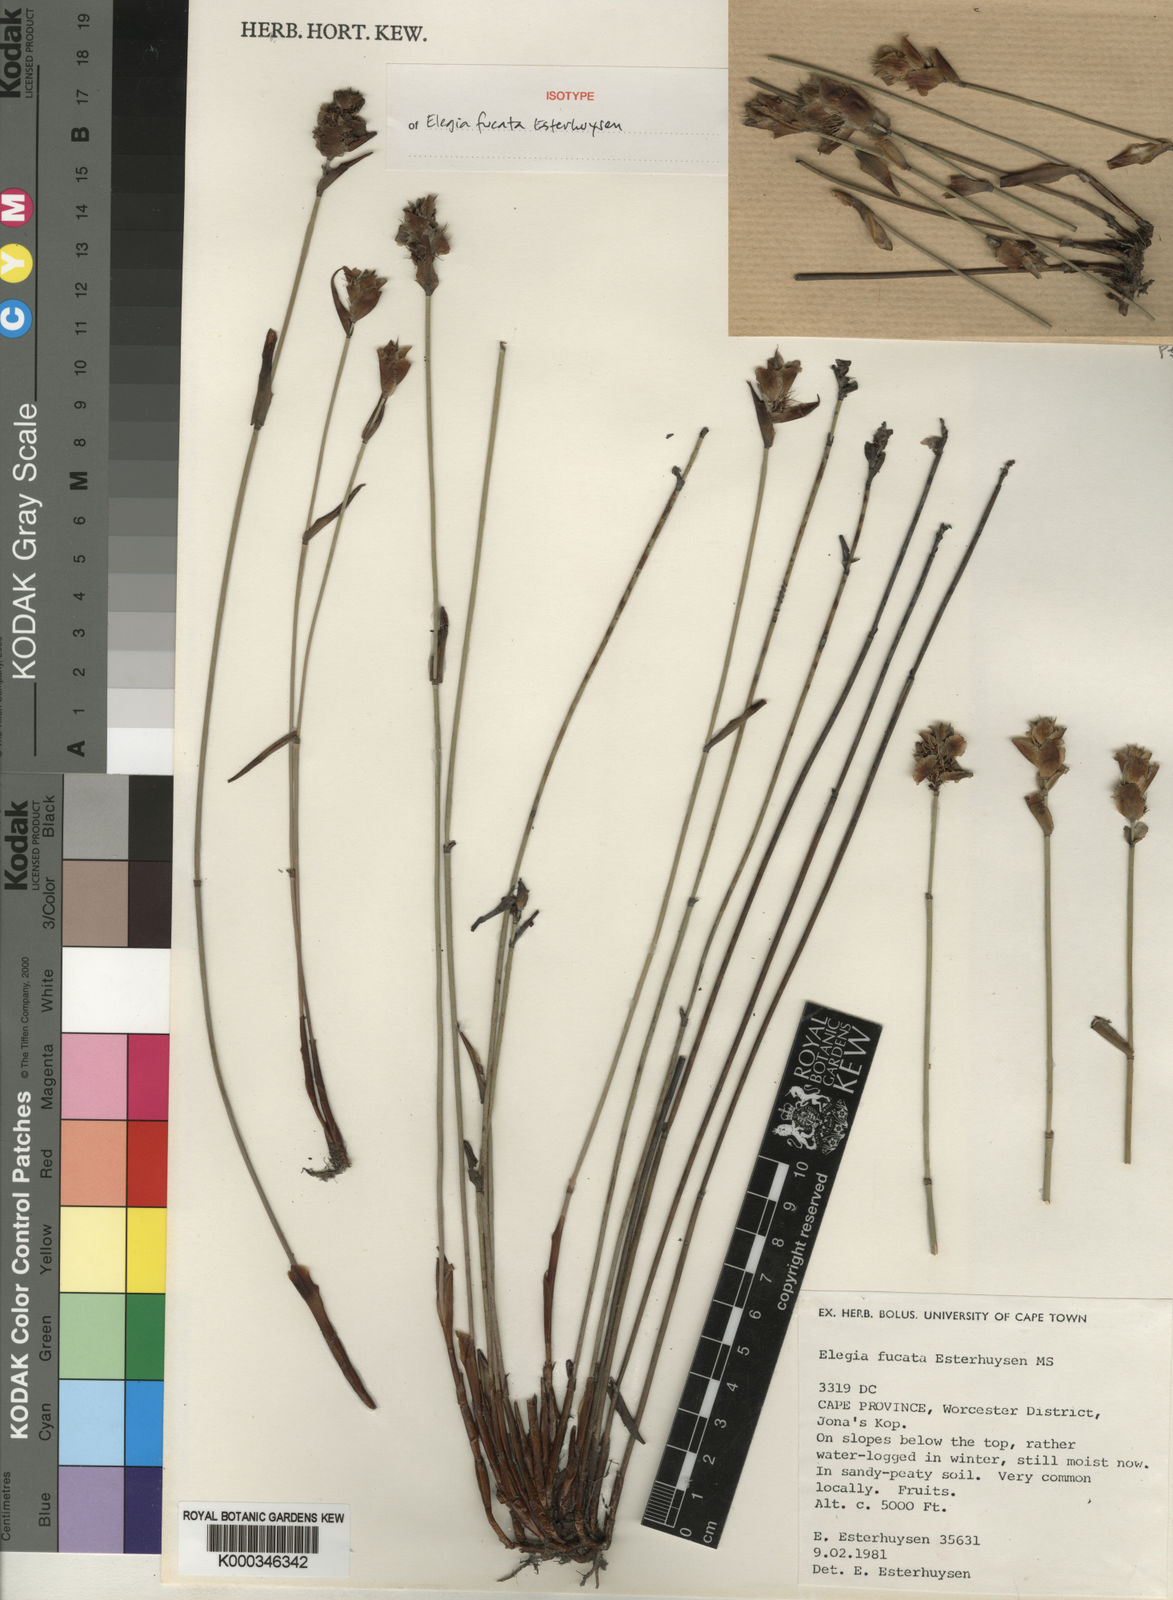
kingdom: Plantae
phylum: Tracheophyta
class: Liliopsida
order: Poales
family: Restionaceae
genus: Elegia
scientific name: Elegia fucata
